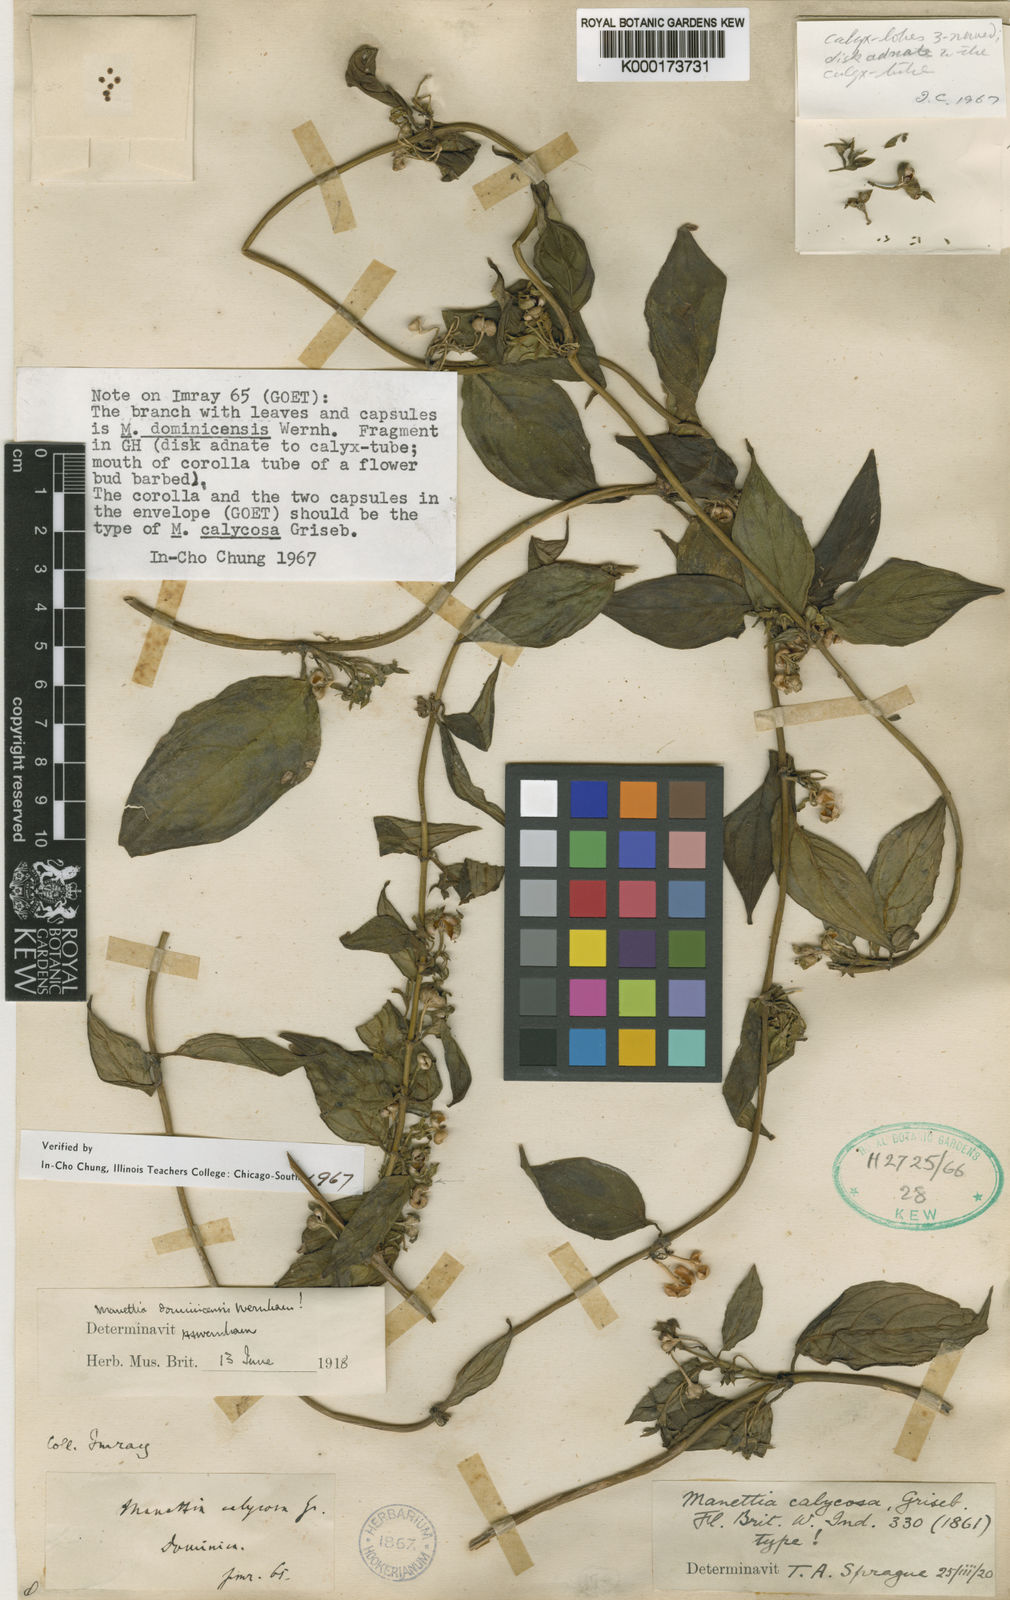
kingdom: Plantae
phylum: Tracheophyta
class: Magnoliopsida
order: Gentianales
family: Rubiaceae
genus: Manettia
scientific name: Manettia dominicensis
